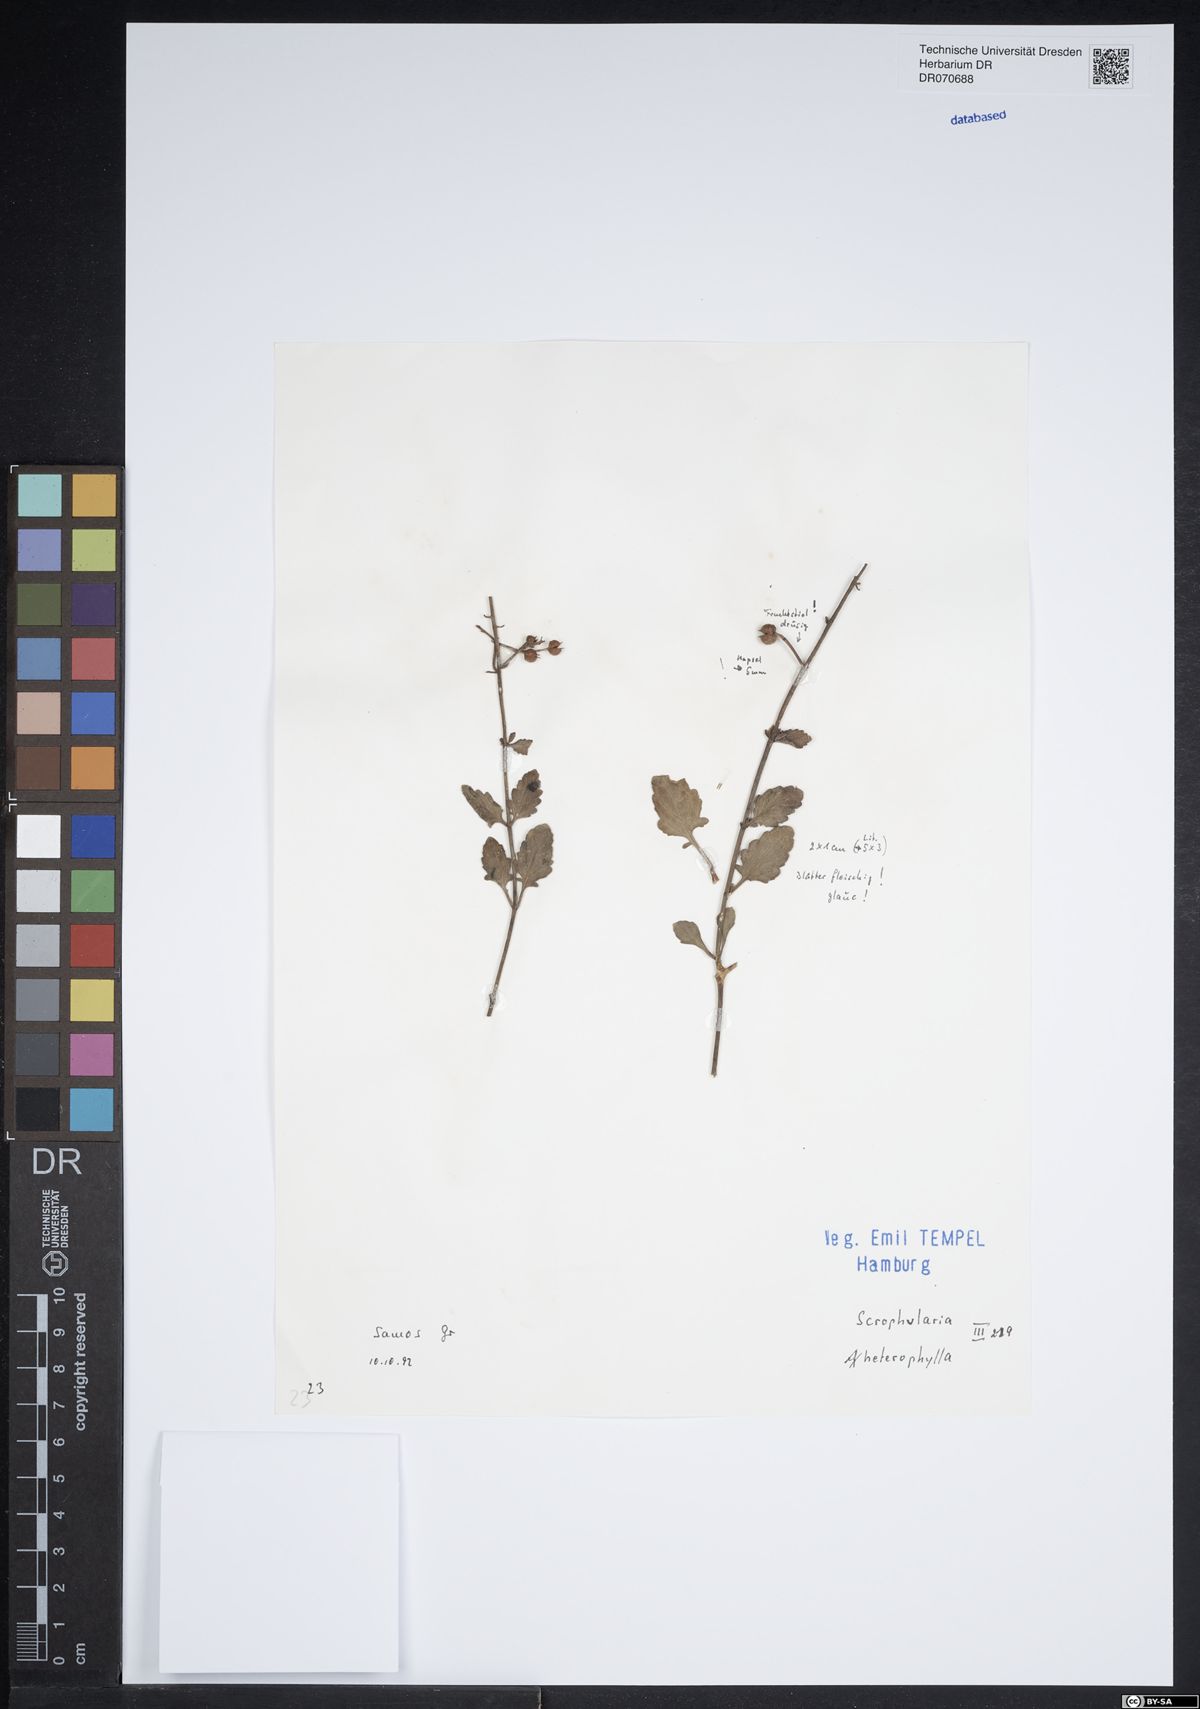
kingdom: Plantae
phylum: Tracheophyta
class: Magnoliopsida
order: Lamiales
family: Scrophulariaceae
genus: Scrophularia
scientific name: Scrophularia heterophylla
